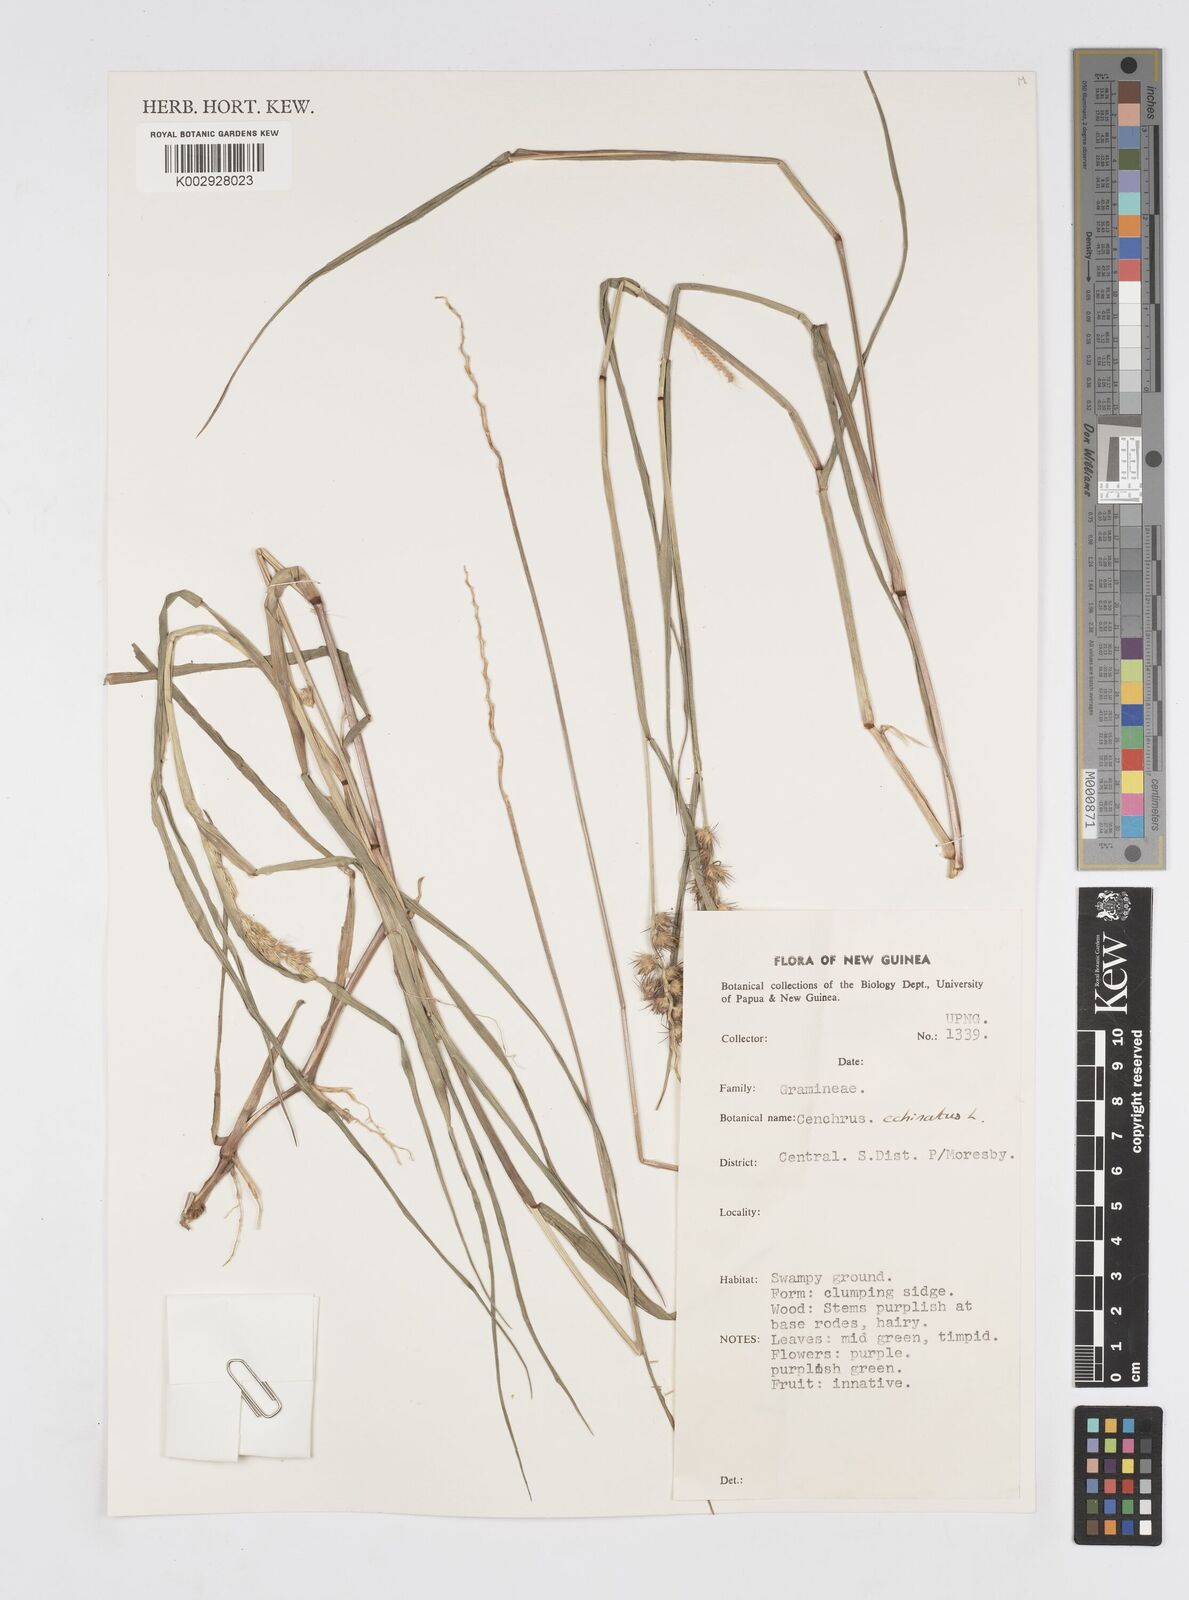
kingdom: Plantae
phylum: Tracheophyta
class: Liliopsida
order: Poales
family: Poaceae
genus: Cenchrus
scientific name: Cenchrus brownii
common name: Slim-bristle sandbur
